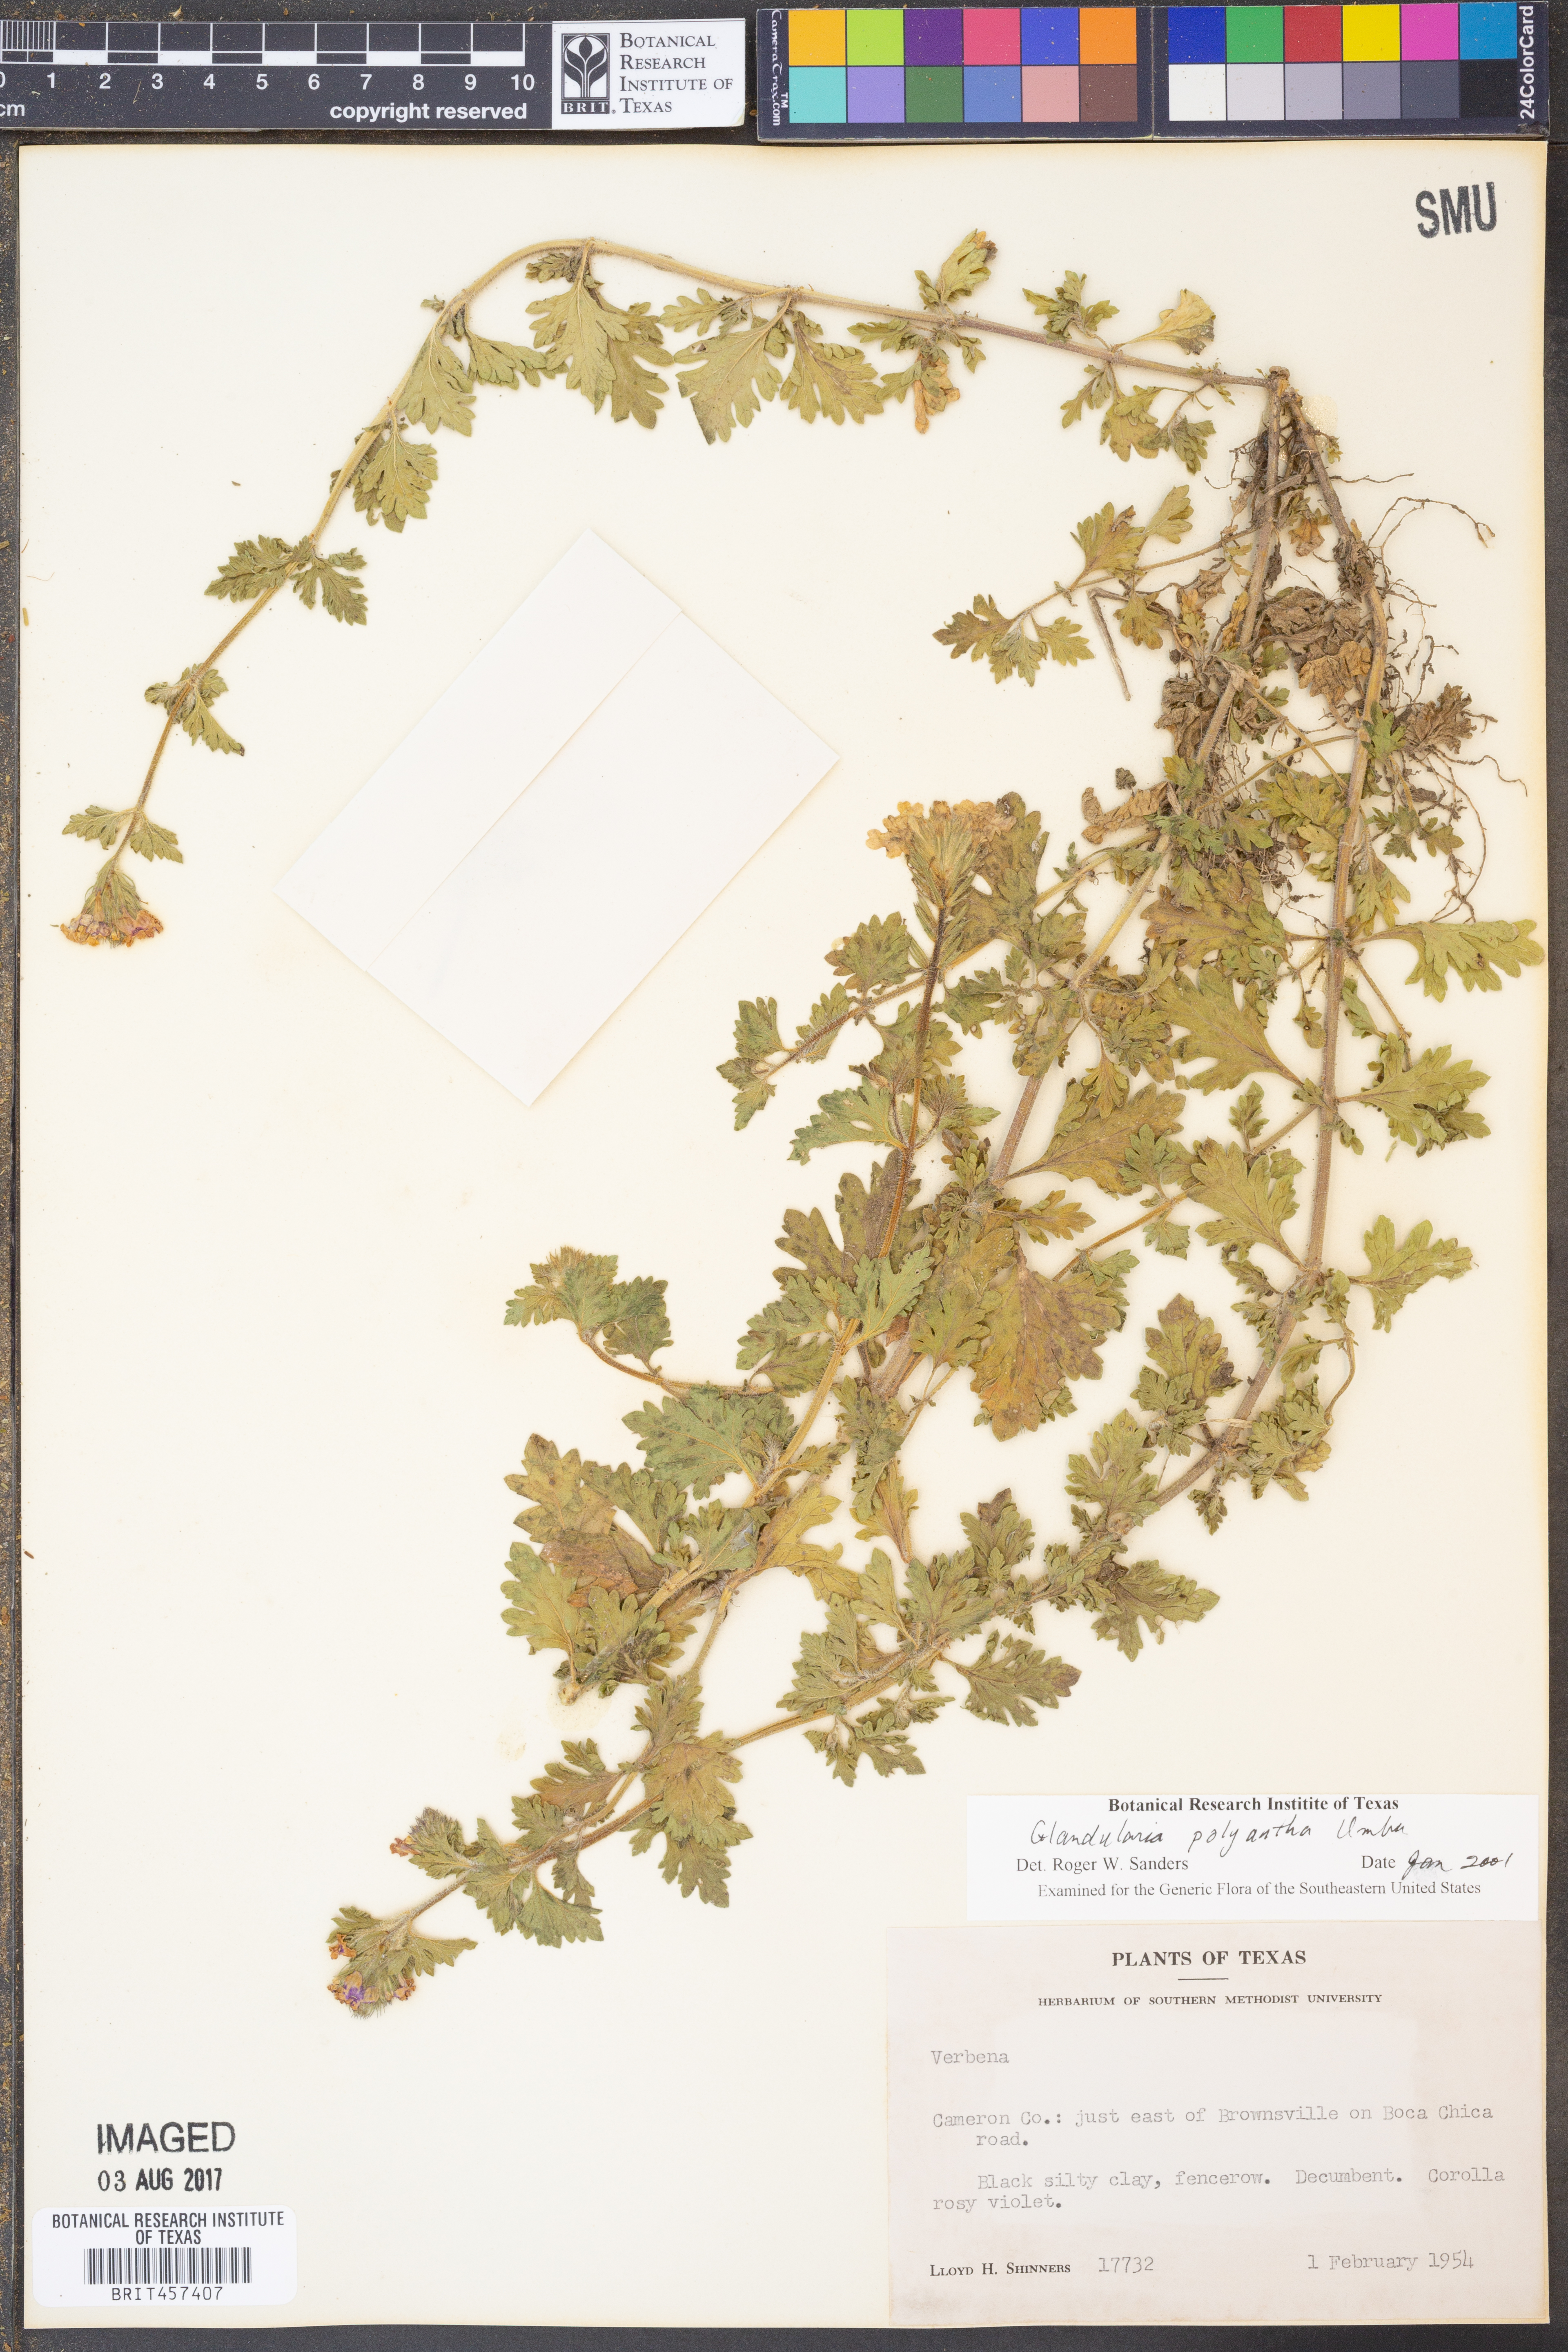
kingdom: Plantae
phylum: Tracheophyta
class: Magnoliopsida
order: Lamiales
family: Verbenaceae
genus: Verbena
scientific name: Verbena polyantha
